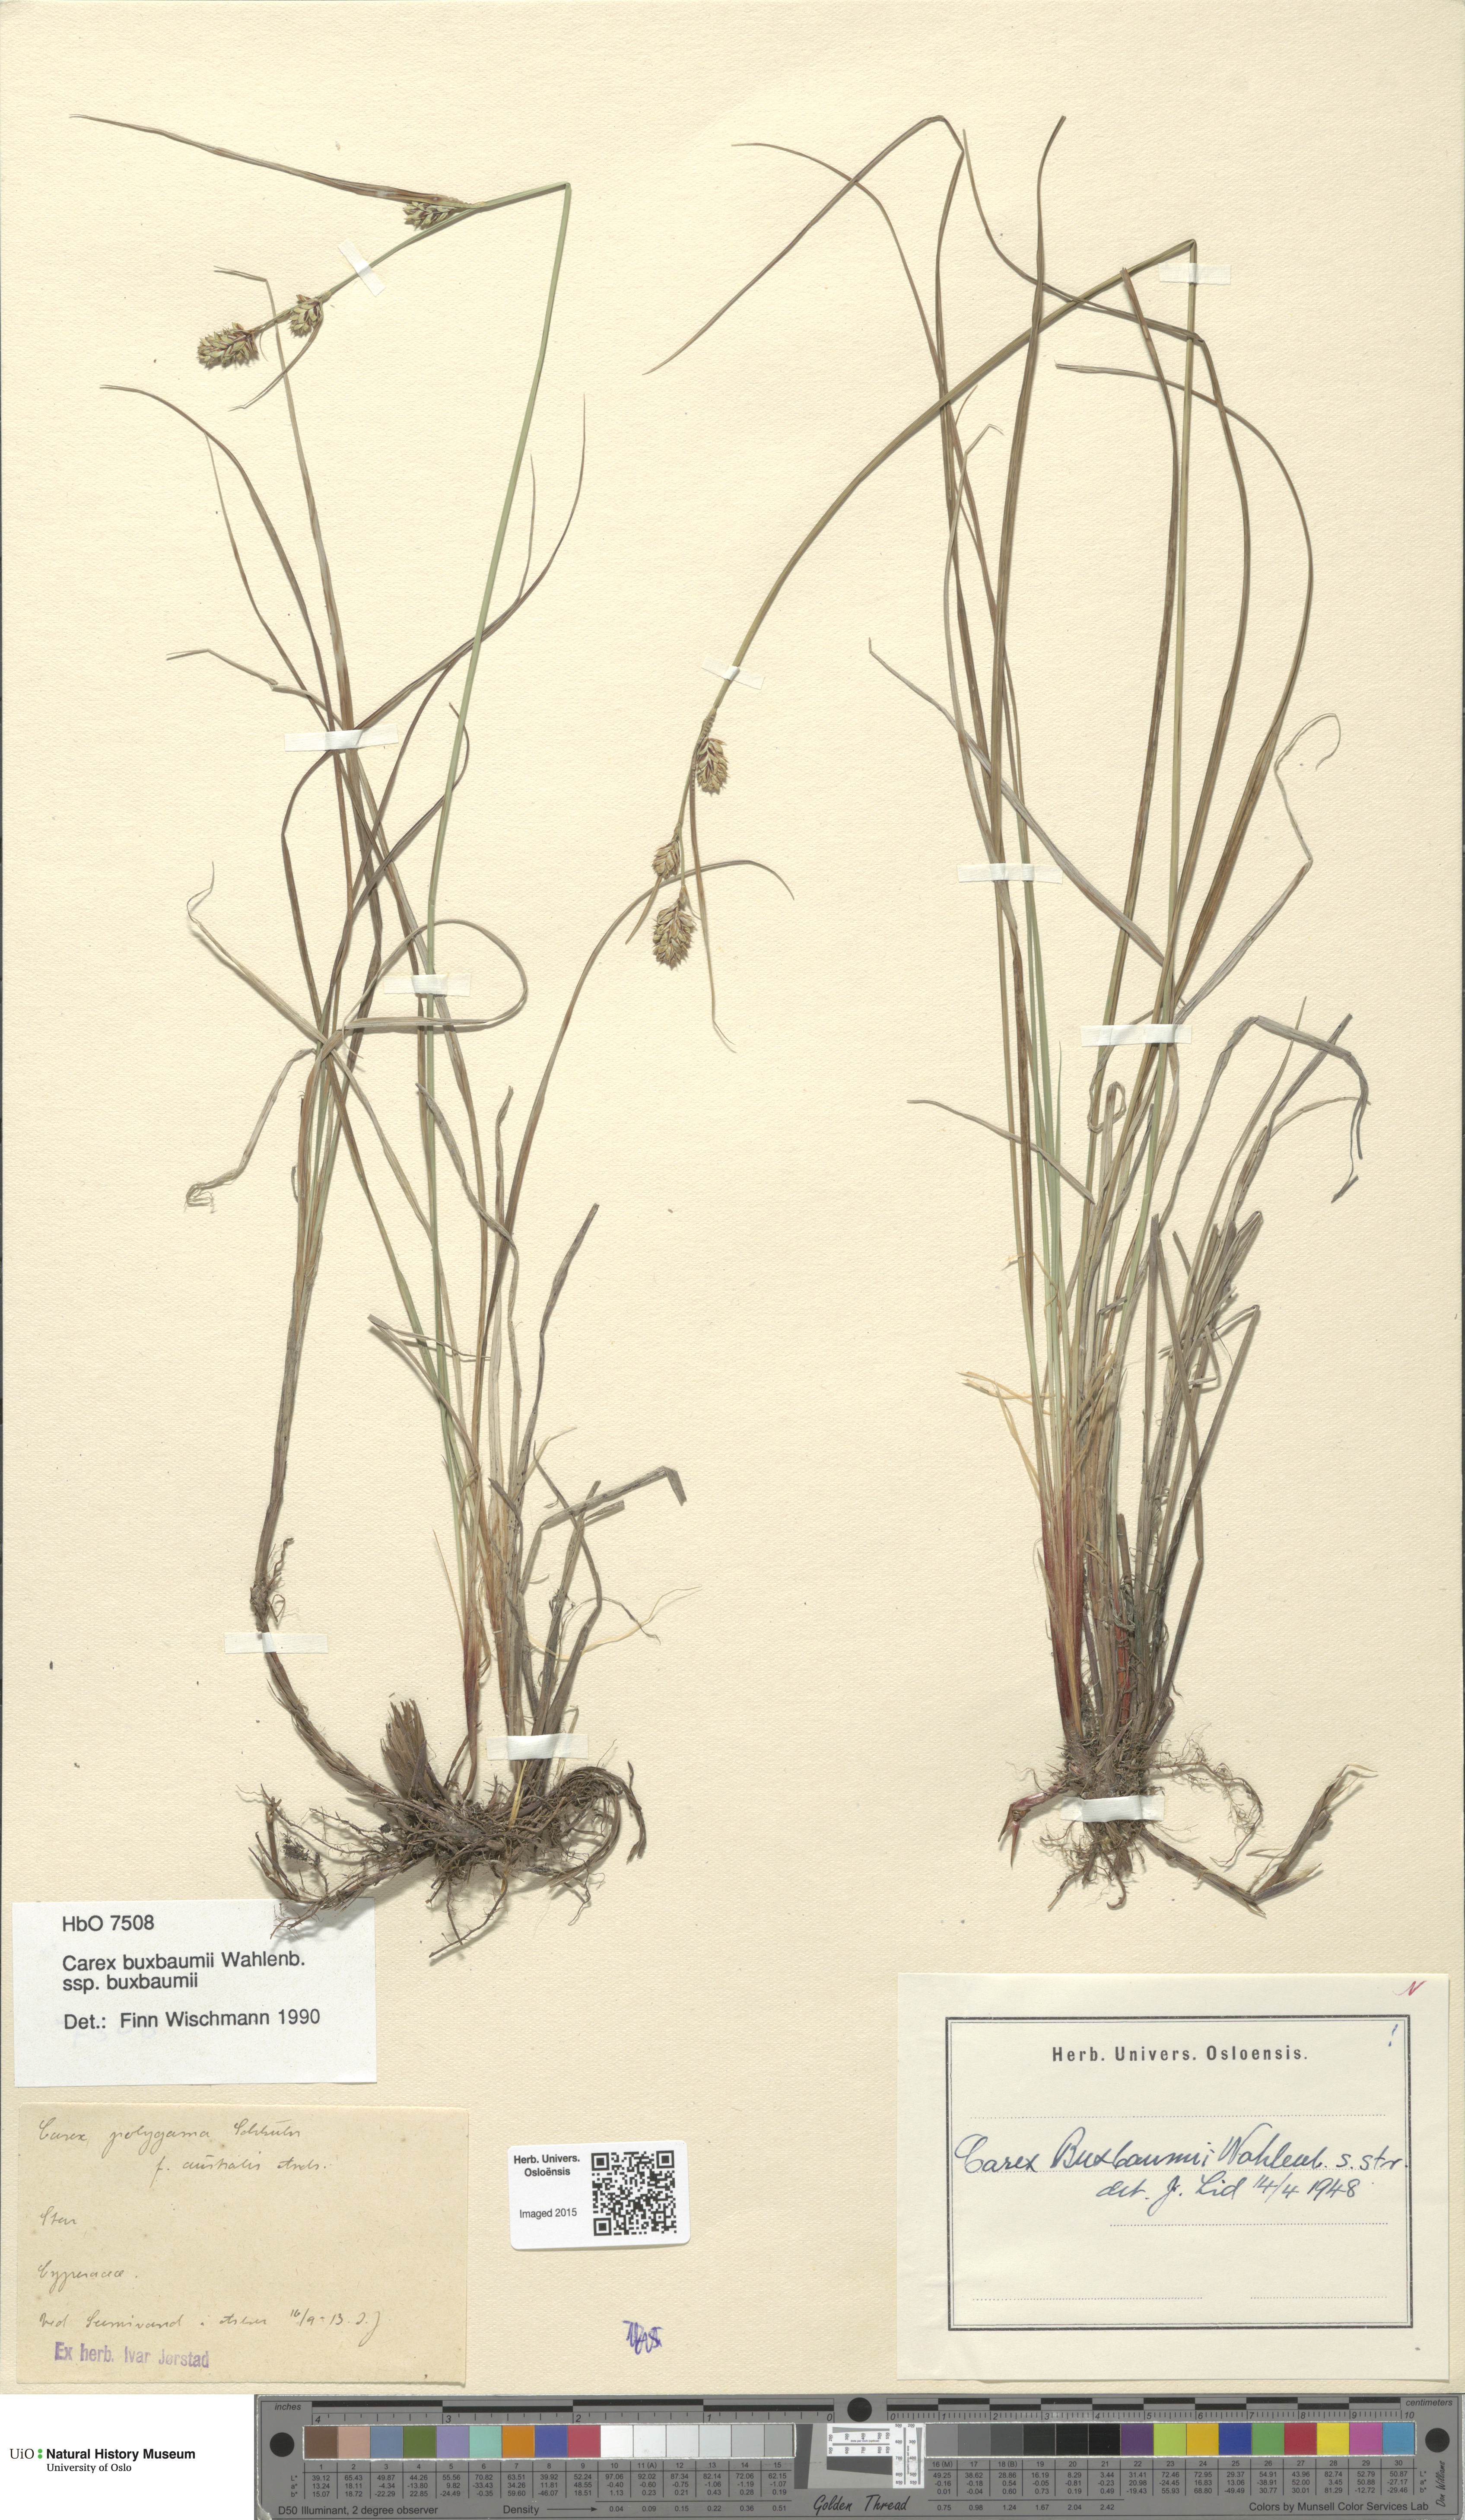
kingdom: Plantae
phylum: Tracheophyta
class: Liliopsida
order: Poales
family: Cyperaceae
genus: Carex
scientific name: Carex buxbaumii
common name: Club sedge
